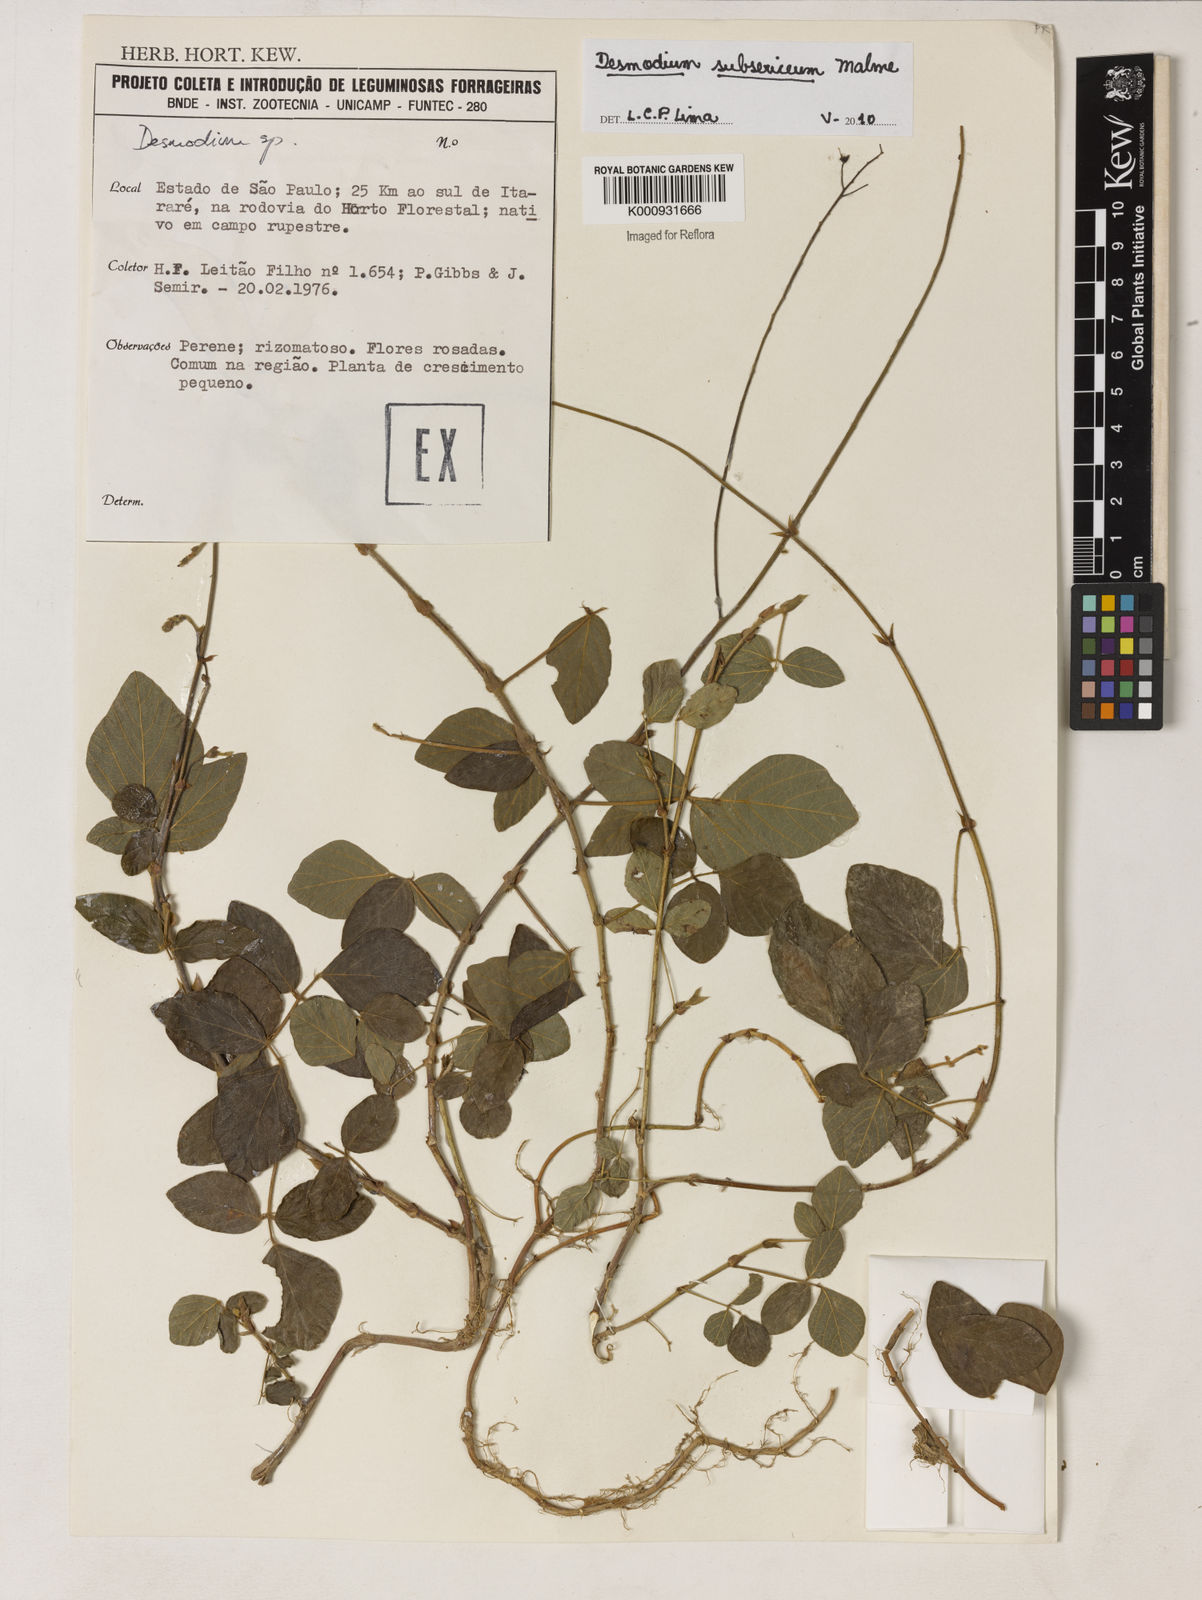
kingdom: Plantae
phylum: Tracheophyta
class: Magnoliopsida
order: Fabales
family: Fabaceae
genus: Desmodium
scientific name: Desmodium subsericeum
